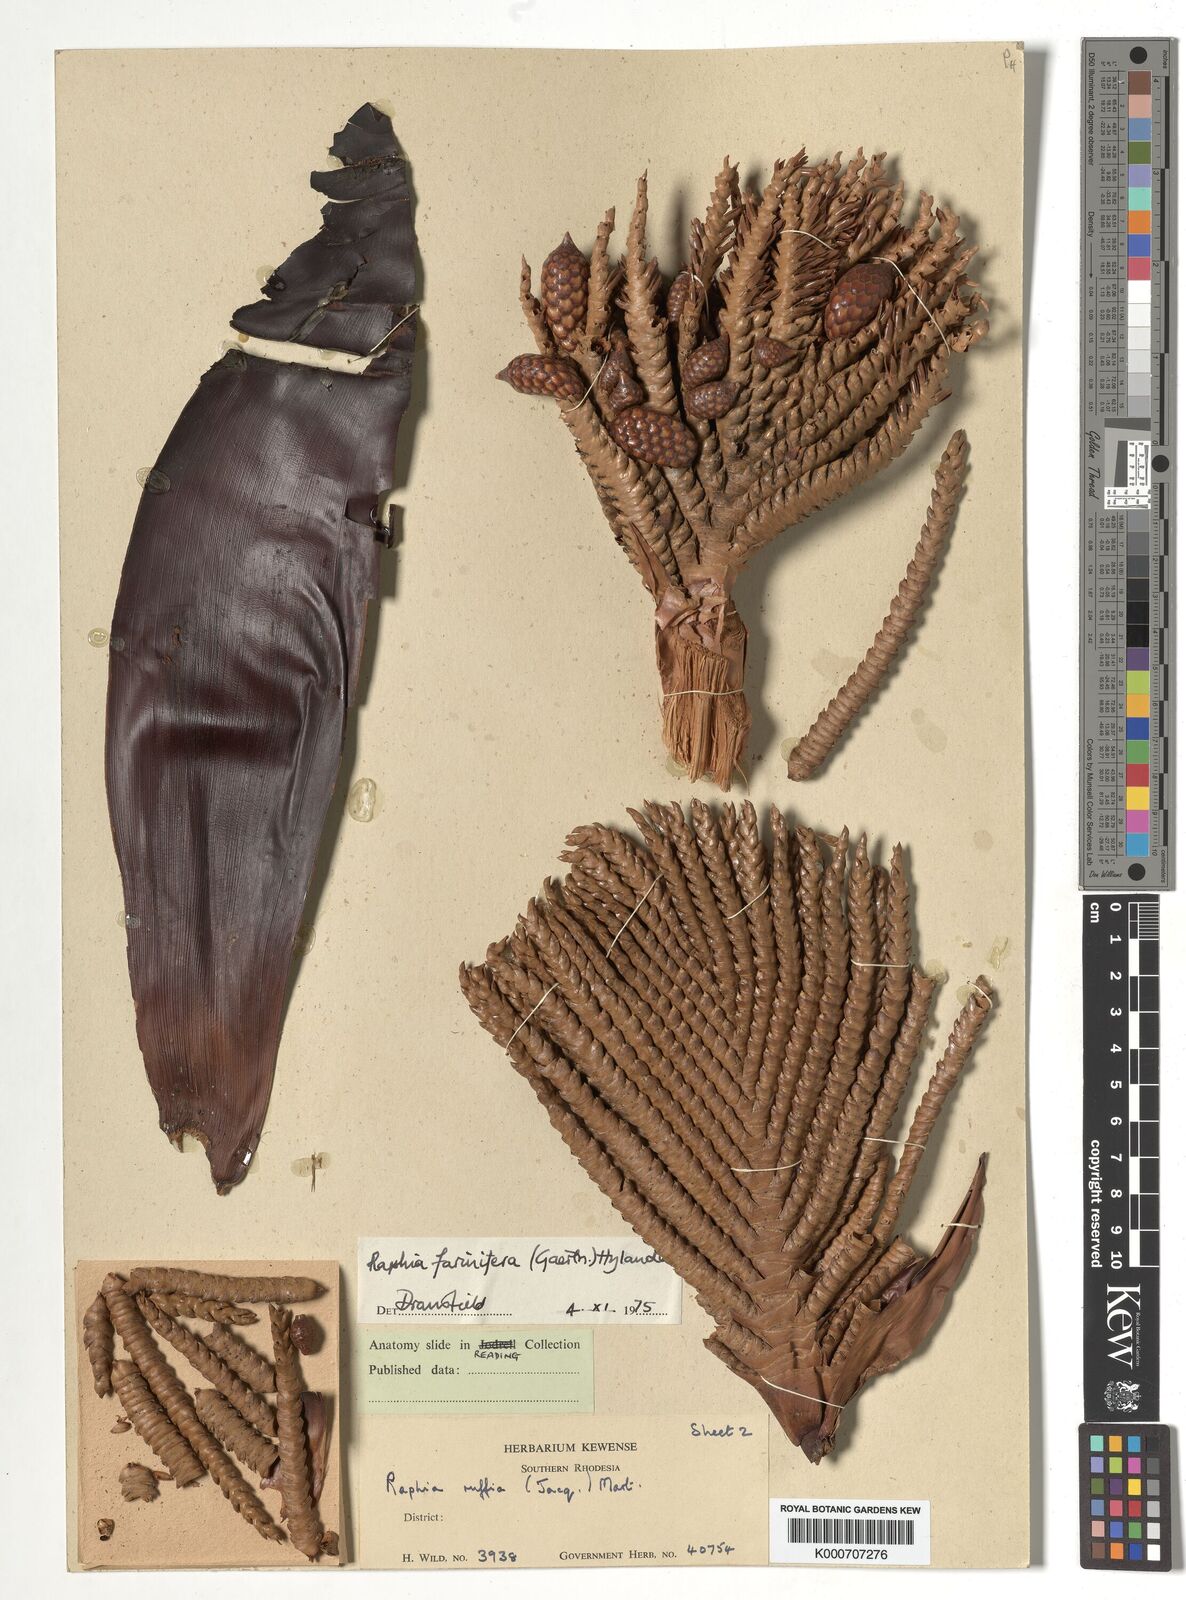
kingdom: Plantae
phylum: Tracheophyta
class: Liliopsida
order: Arecales
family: Arecaceae
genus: Raphia
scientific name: Raphia farinifera
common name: Raphia palm
